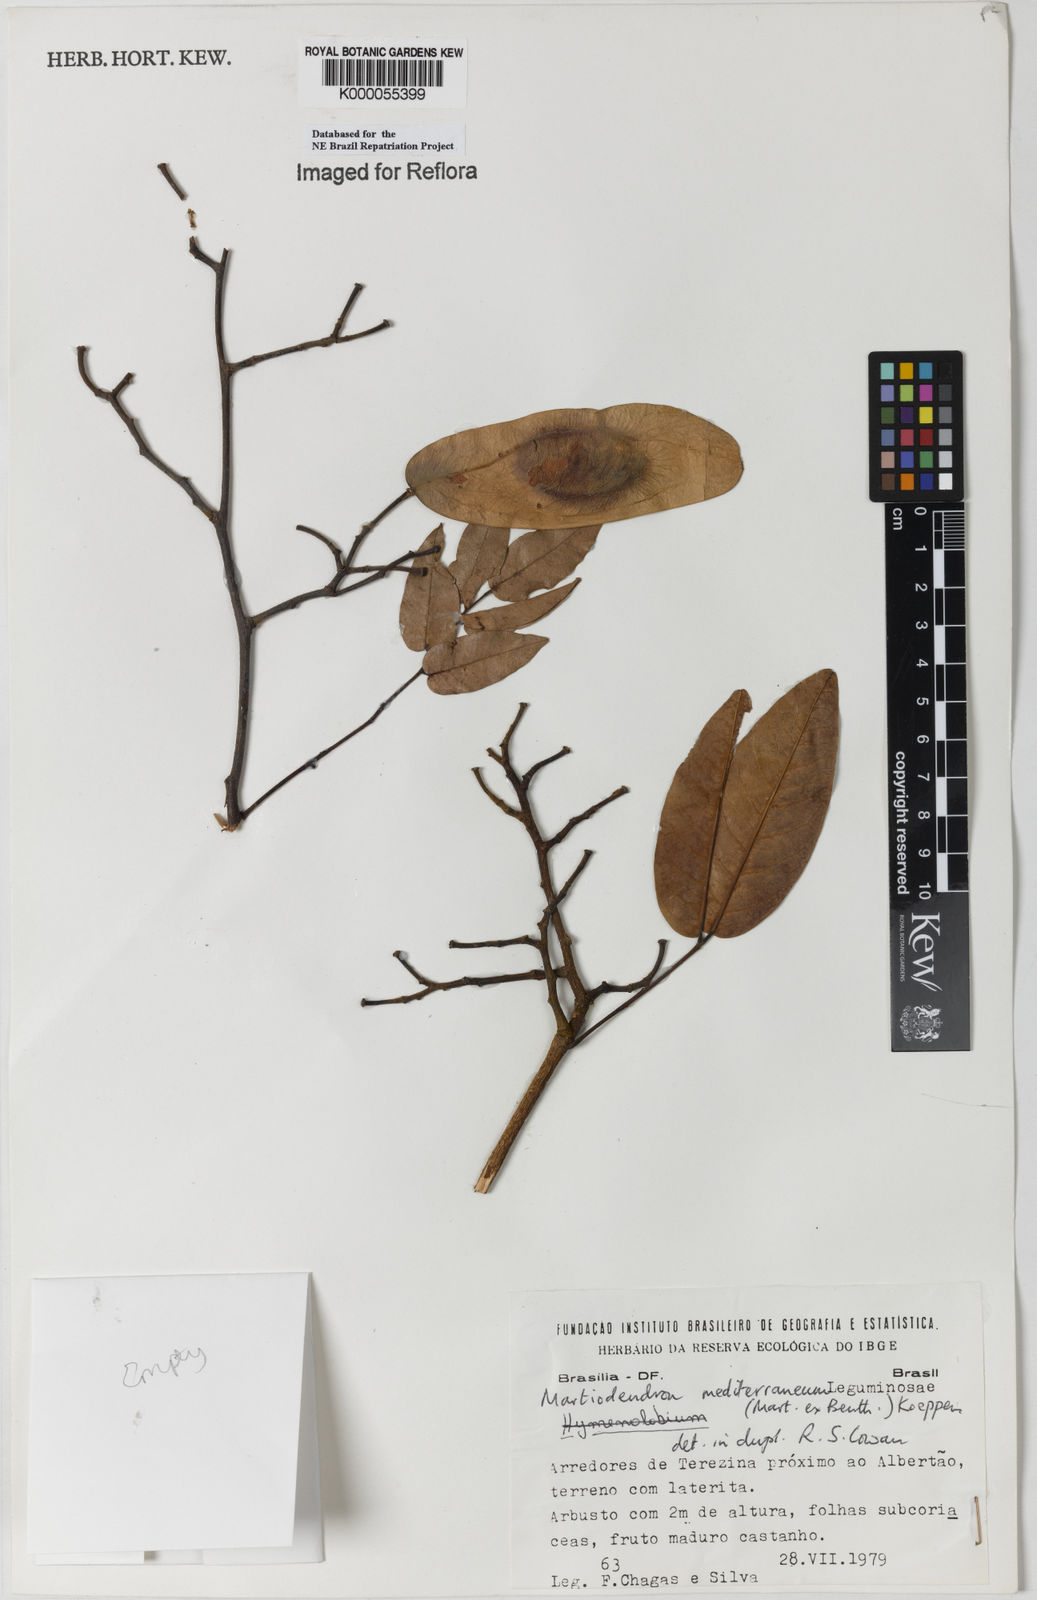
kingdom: Plantae
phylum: Tracheophyta
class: Magnoliopsida
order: Fabales
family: Fabaceae
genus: Martiodendron
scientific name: Martiodendron
